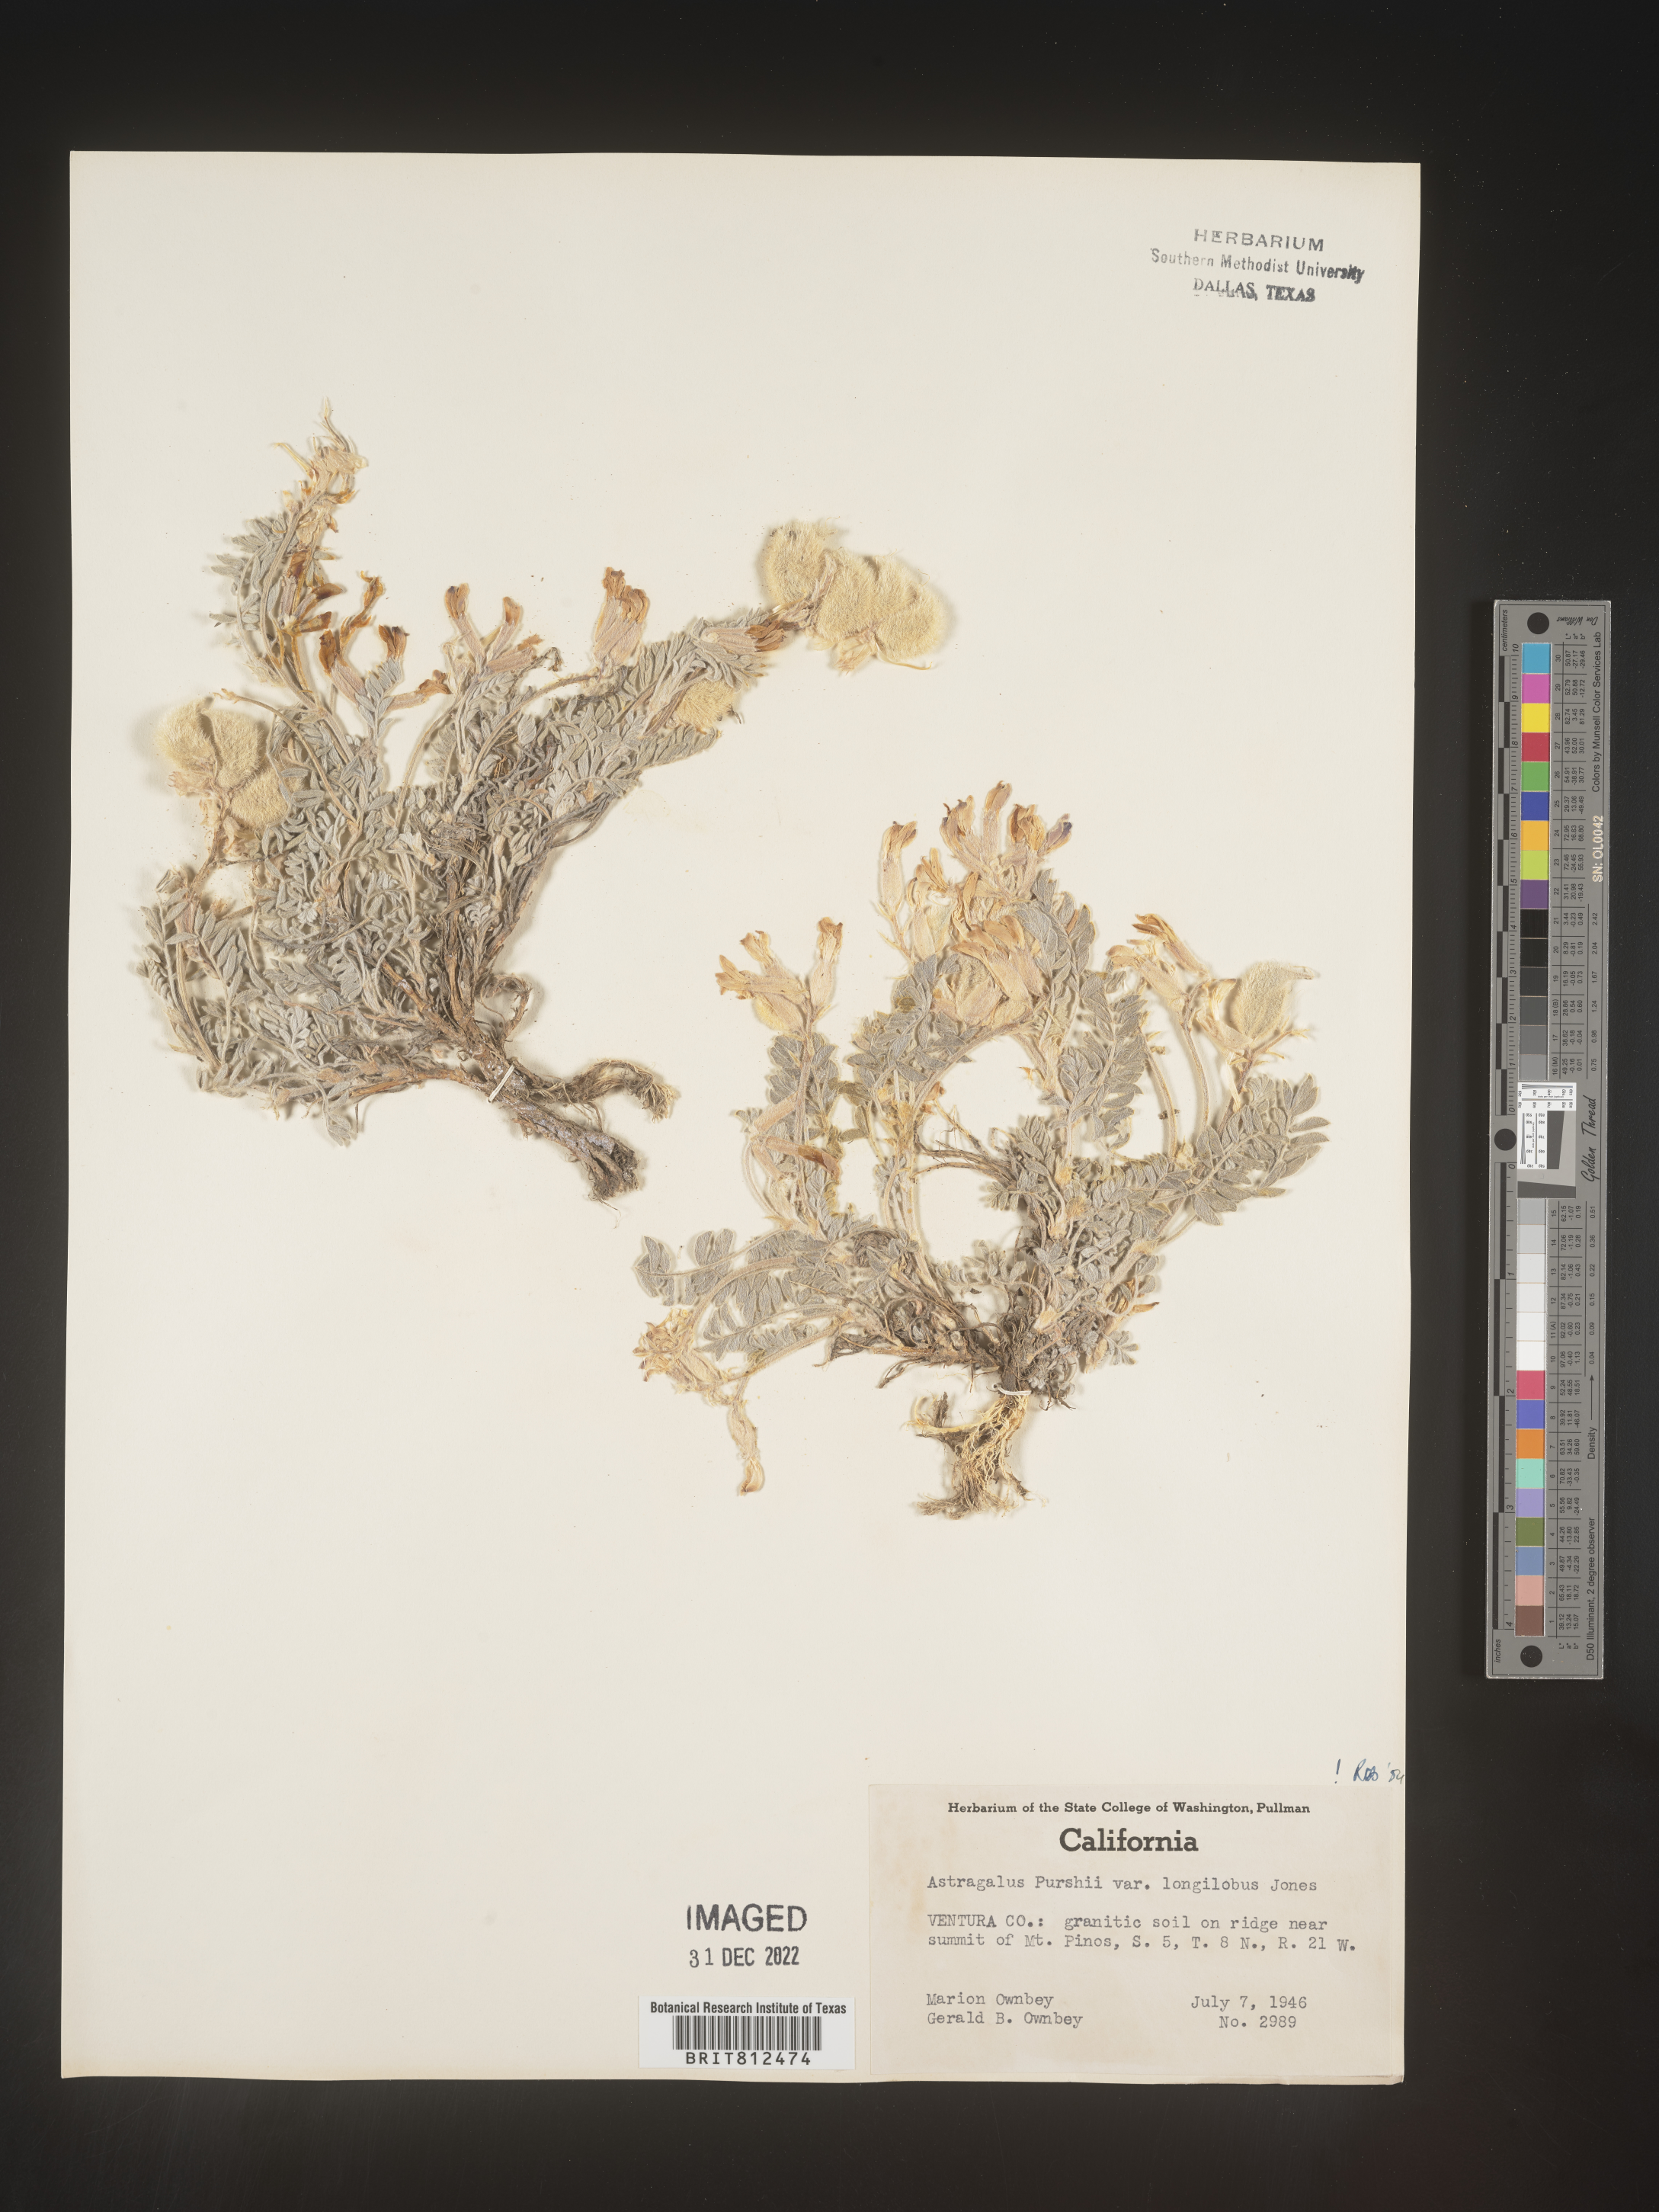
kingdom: Plantae
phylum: Tracheophyta
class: Magnoliopsida
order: Fabales
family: Fabaceae
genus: Astragalus
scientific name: Astragalus leucolobus
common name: Big bear valley woollypod
